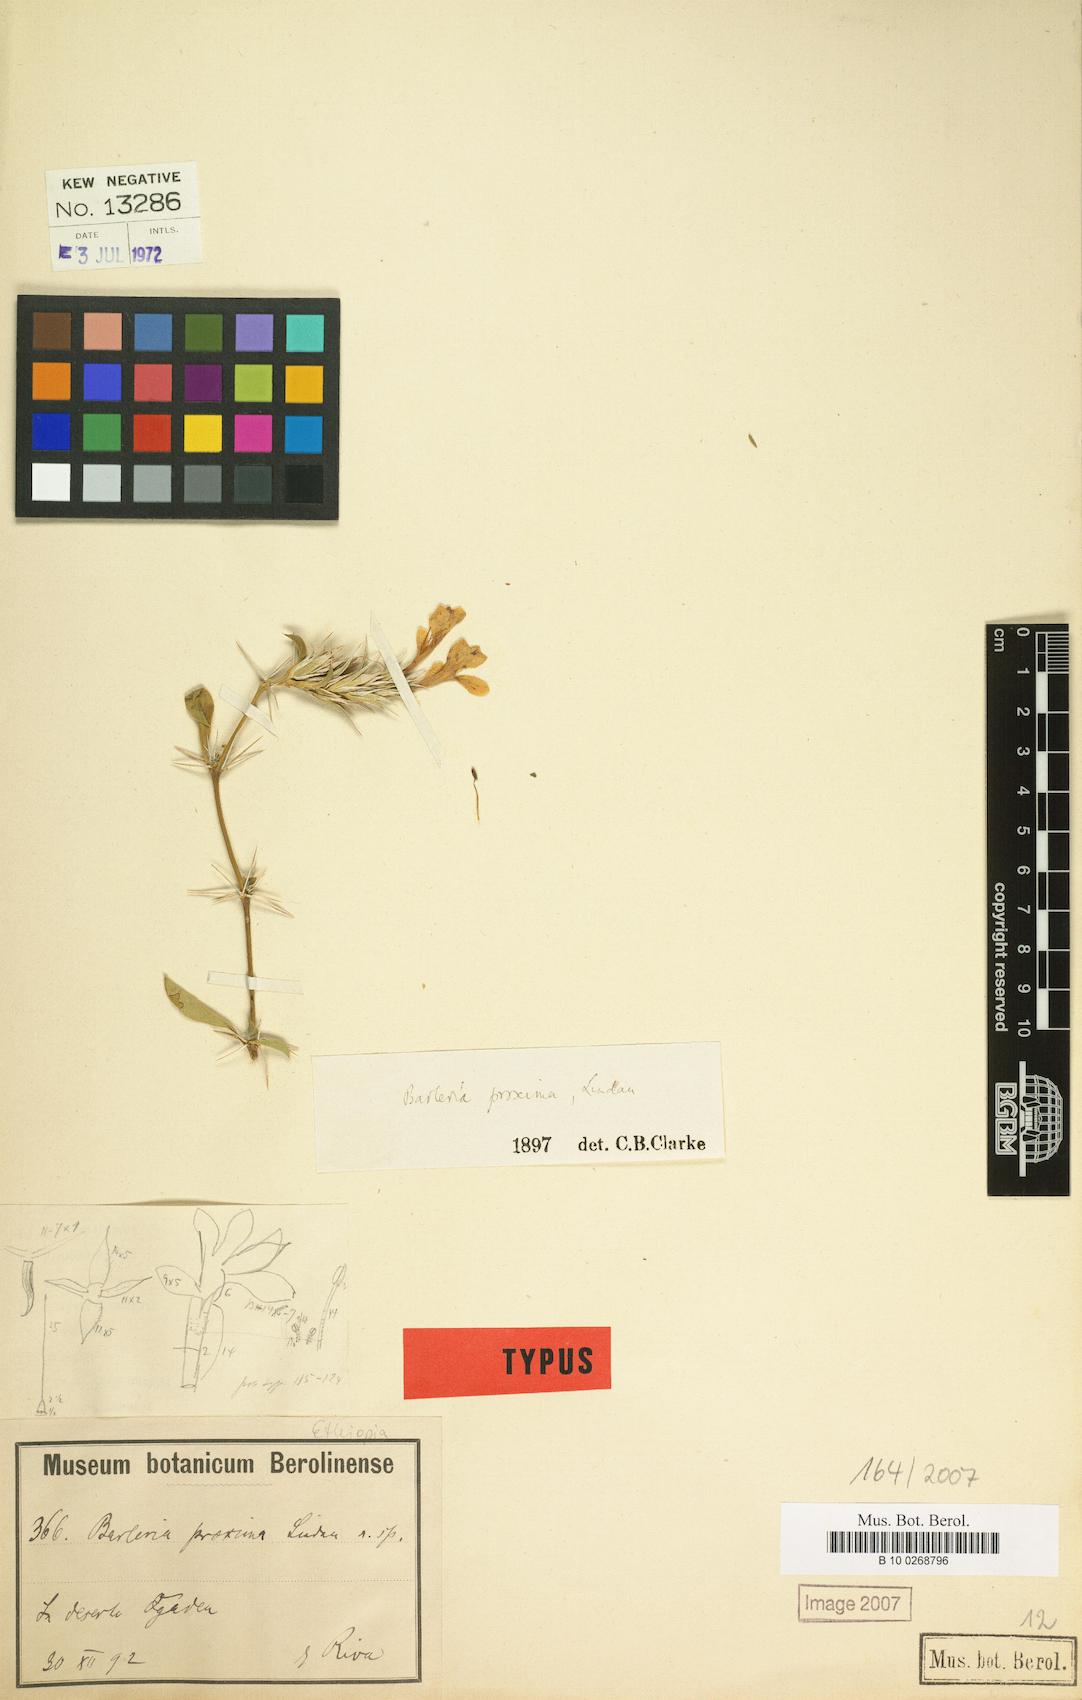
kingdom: Plantae
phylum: Tracheophyta
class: Magnoliopsida
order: Lamiales
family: Acanthaceae
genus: Barleria
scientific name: Barleria proxima
